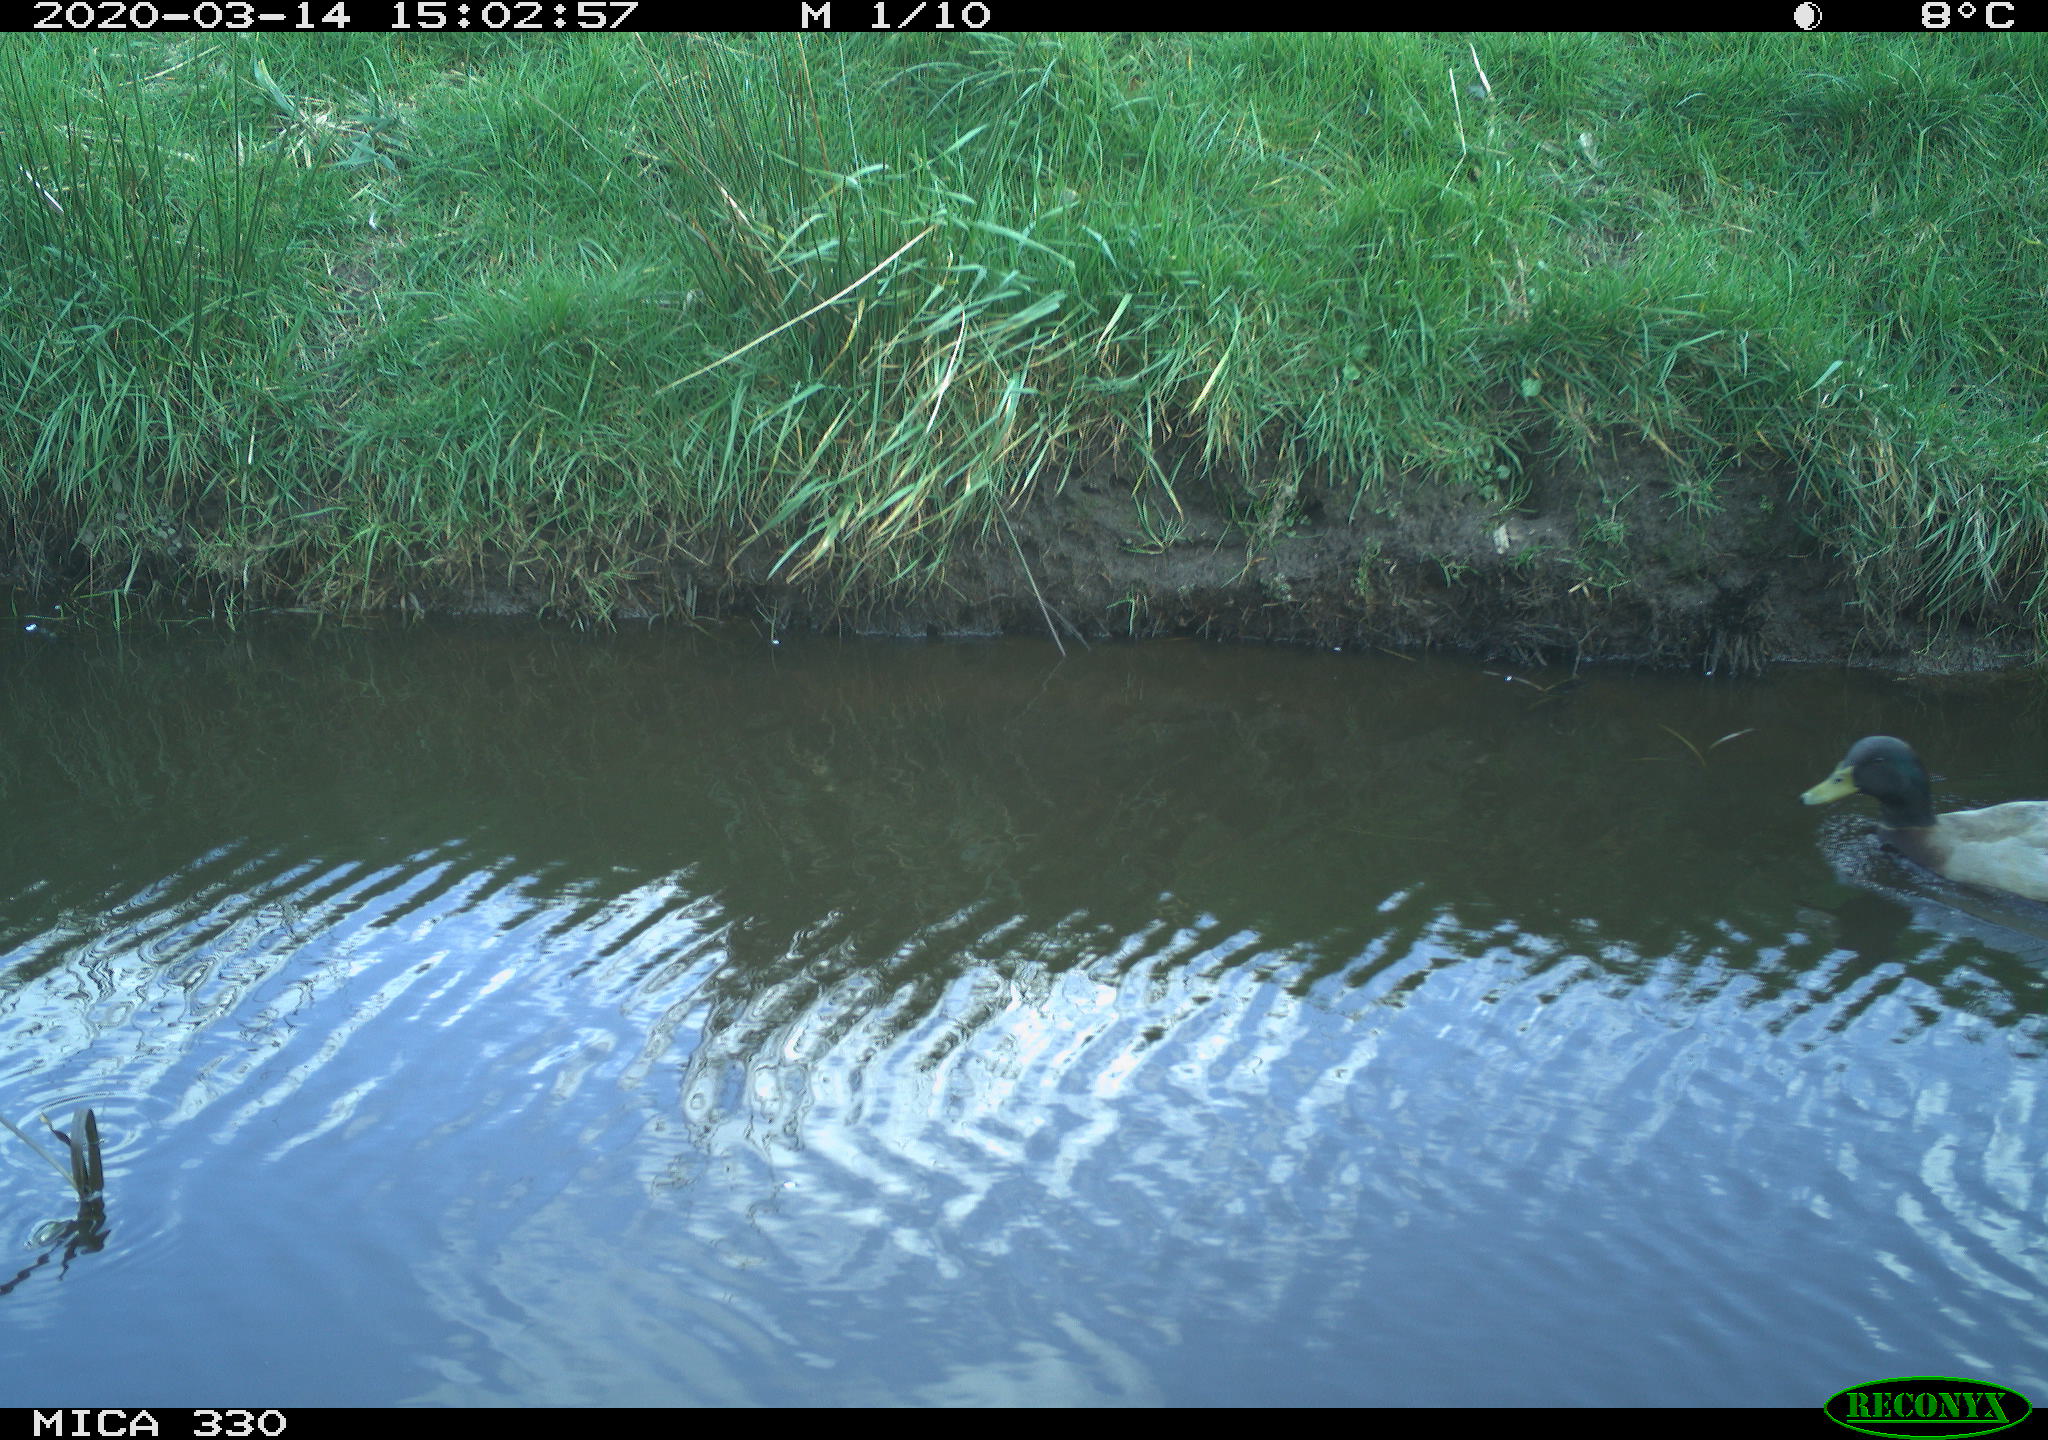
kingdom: Animalia
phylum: Chordata
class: Aves
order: Anseriformes
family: Anatidae
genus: Anas
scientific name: Anas platyrhynchos
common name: Mallard
